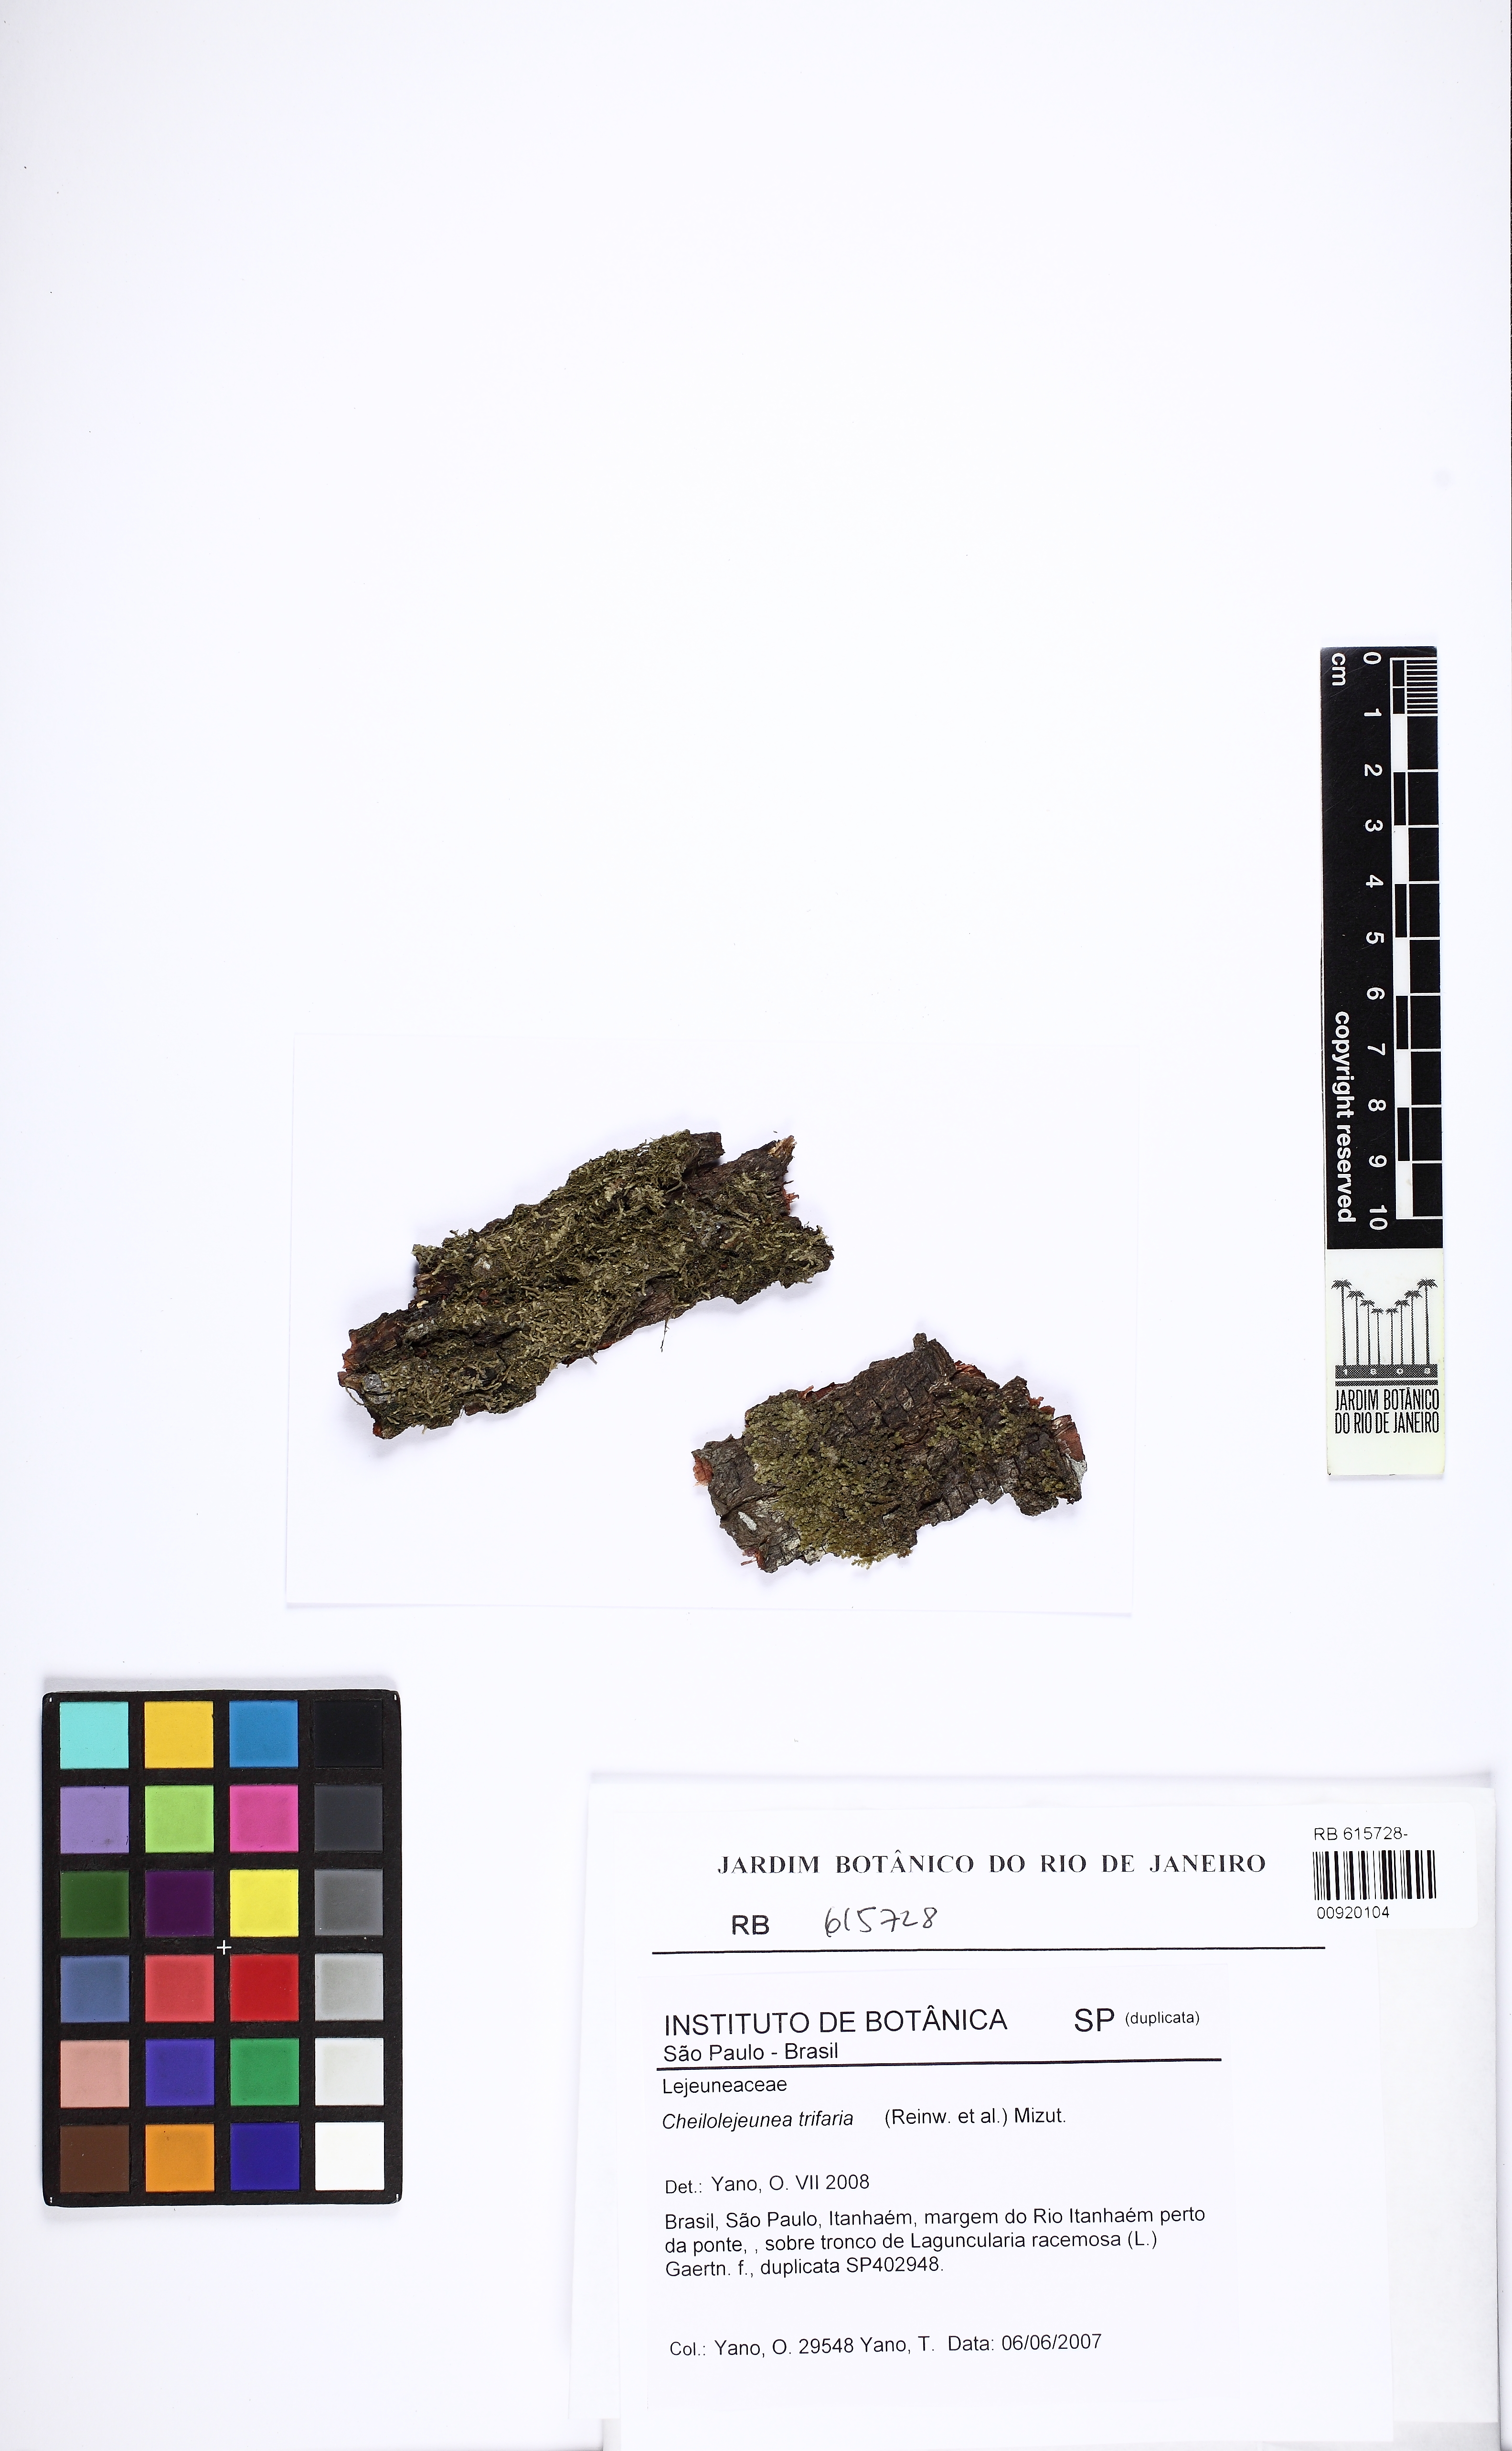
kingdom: Plantae
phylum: Marchantiophyta
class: Jungermanniopsida
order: Porellales
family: Lejeuneaceae
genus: Cheilolejeunea
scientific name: Cheilolejeunea trifaria
